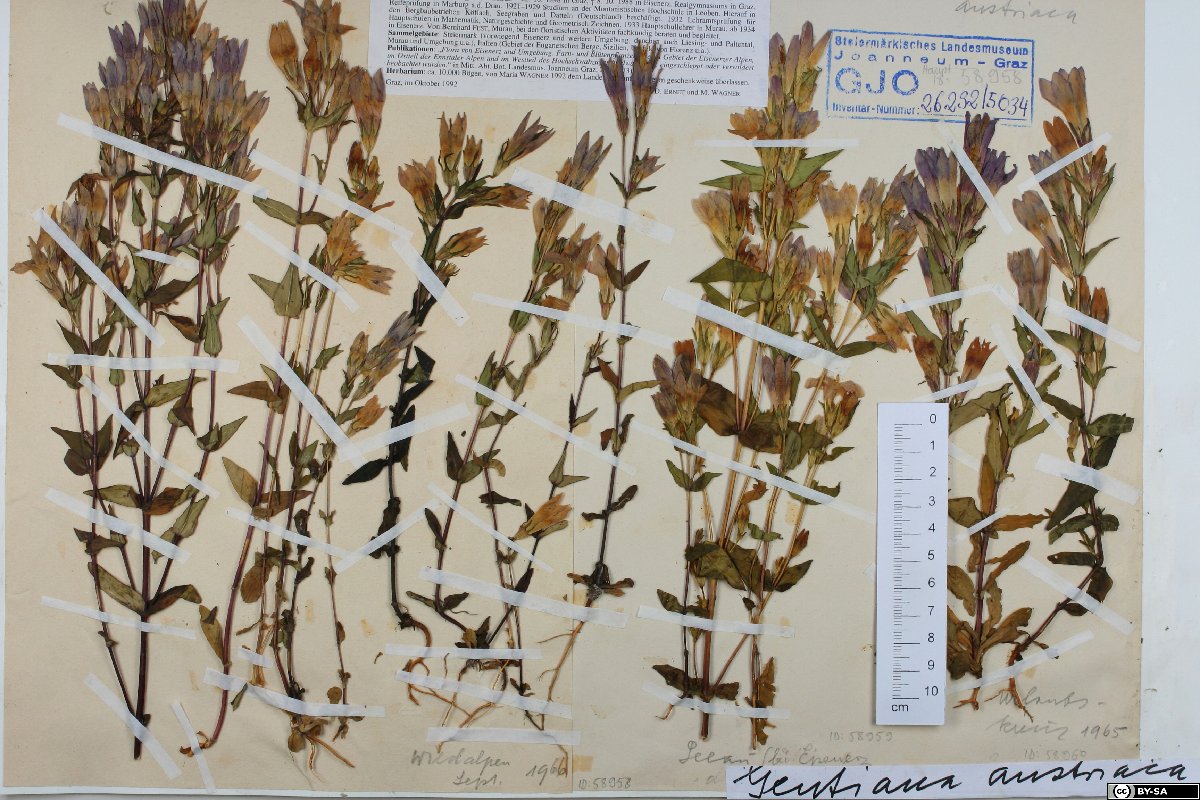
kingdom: Plantae
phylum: Tracheophyta
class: Magnoliopsida
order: Gentianales
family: Gentianaceae
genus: Gentianella
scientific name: Gentianella austriaca
